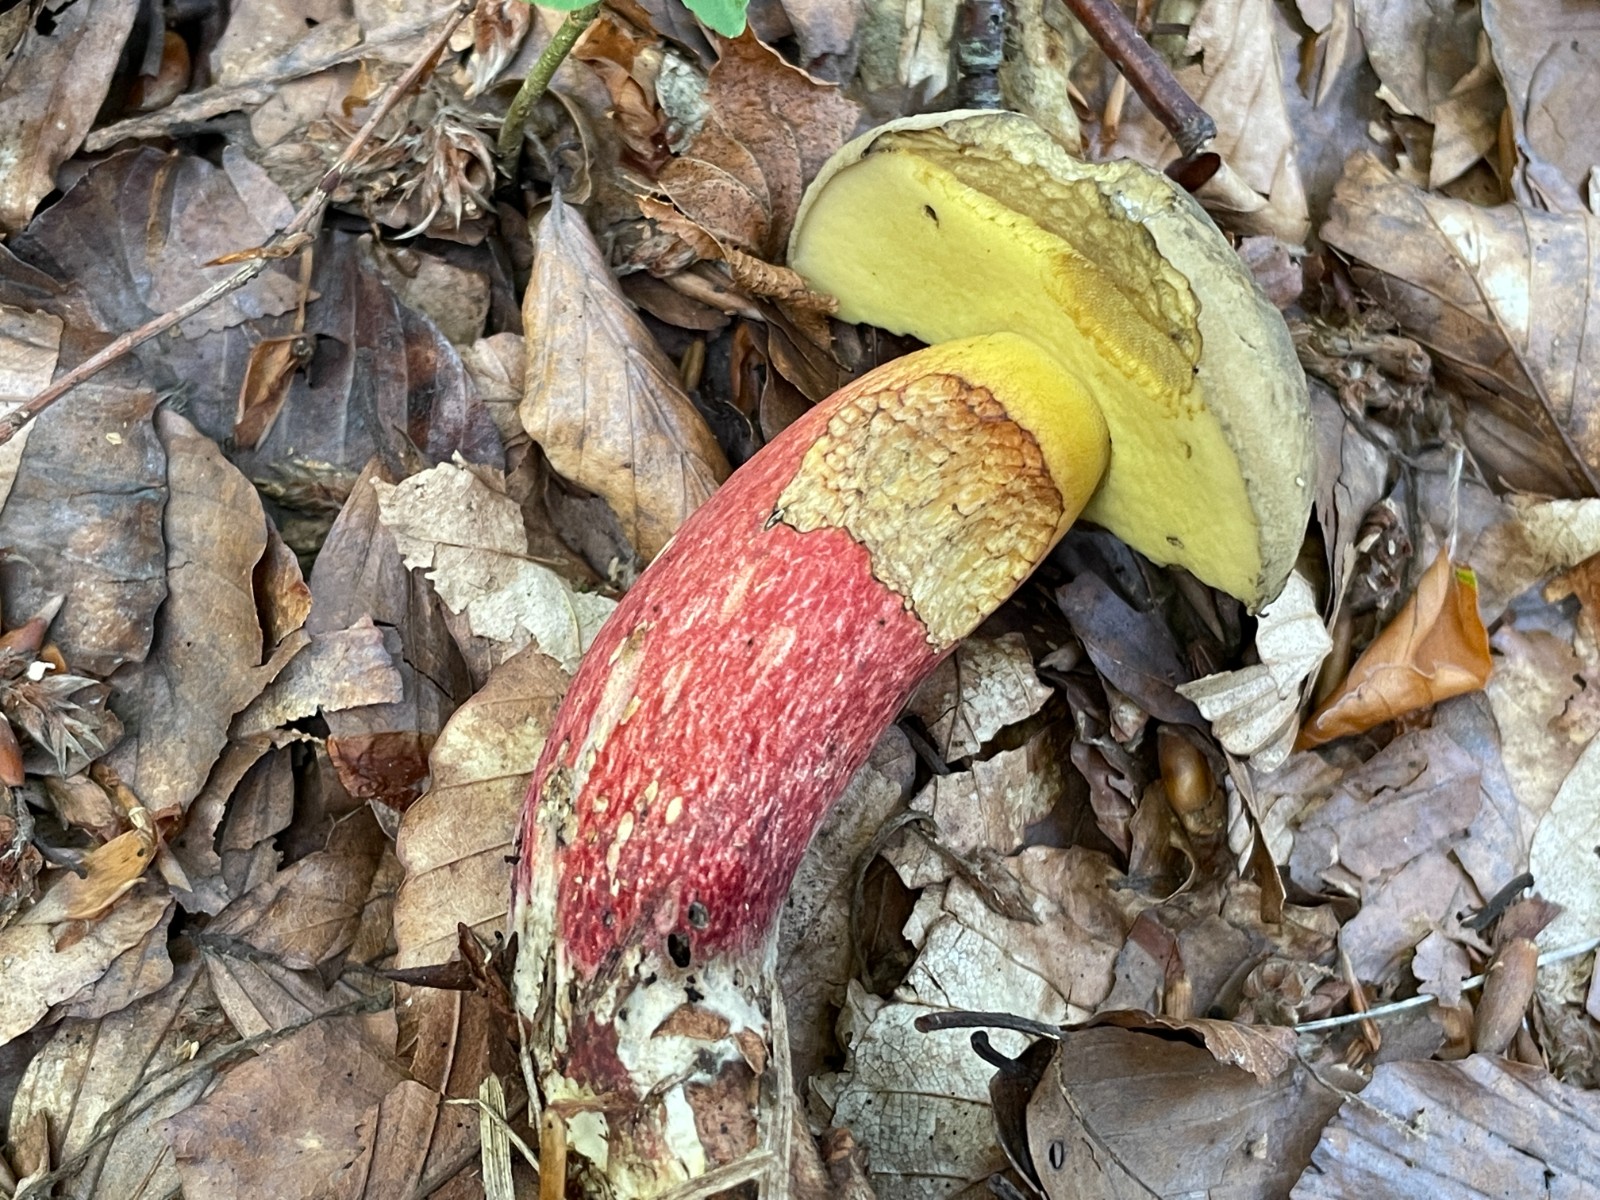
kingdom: Fungi
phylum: Basidiomycota
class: Agaricomycetes
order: Boletales
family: Boletaceae
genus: Caloboletus
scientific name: Caloboletus calopus
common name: skønfodet rørhat
